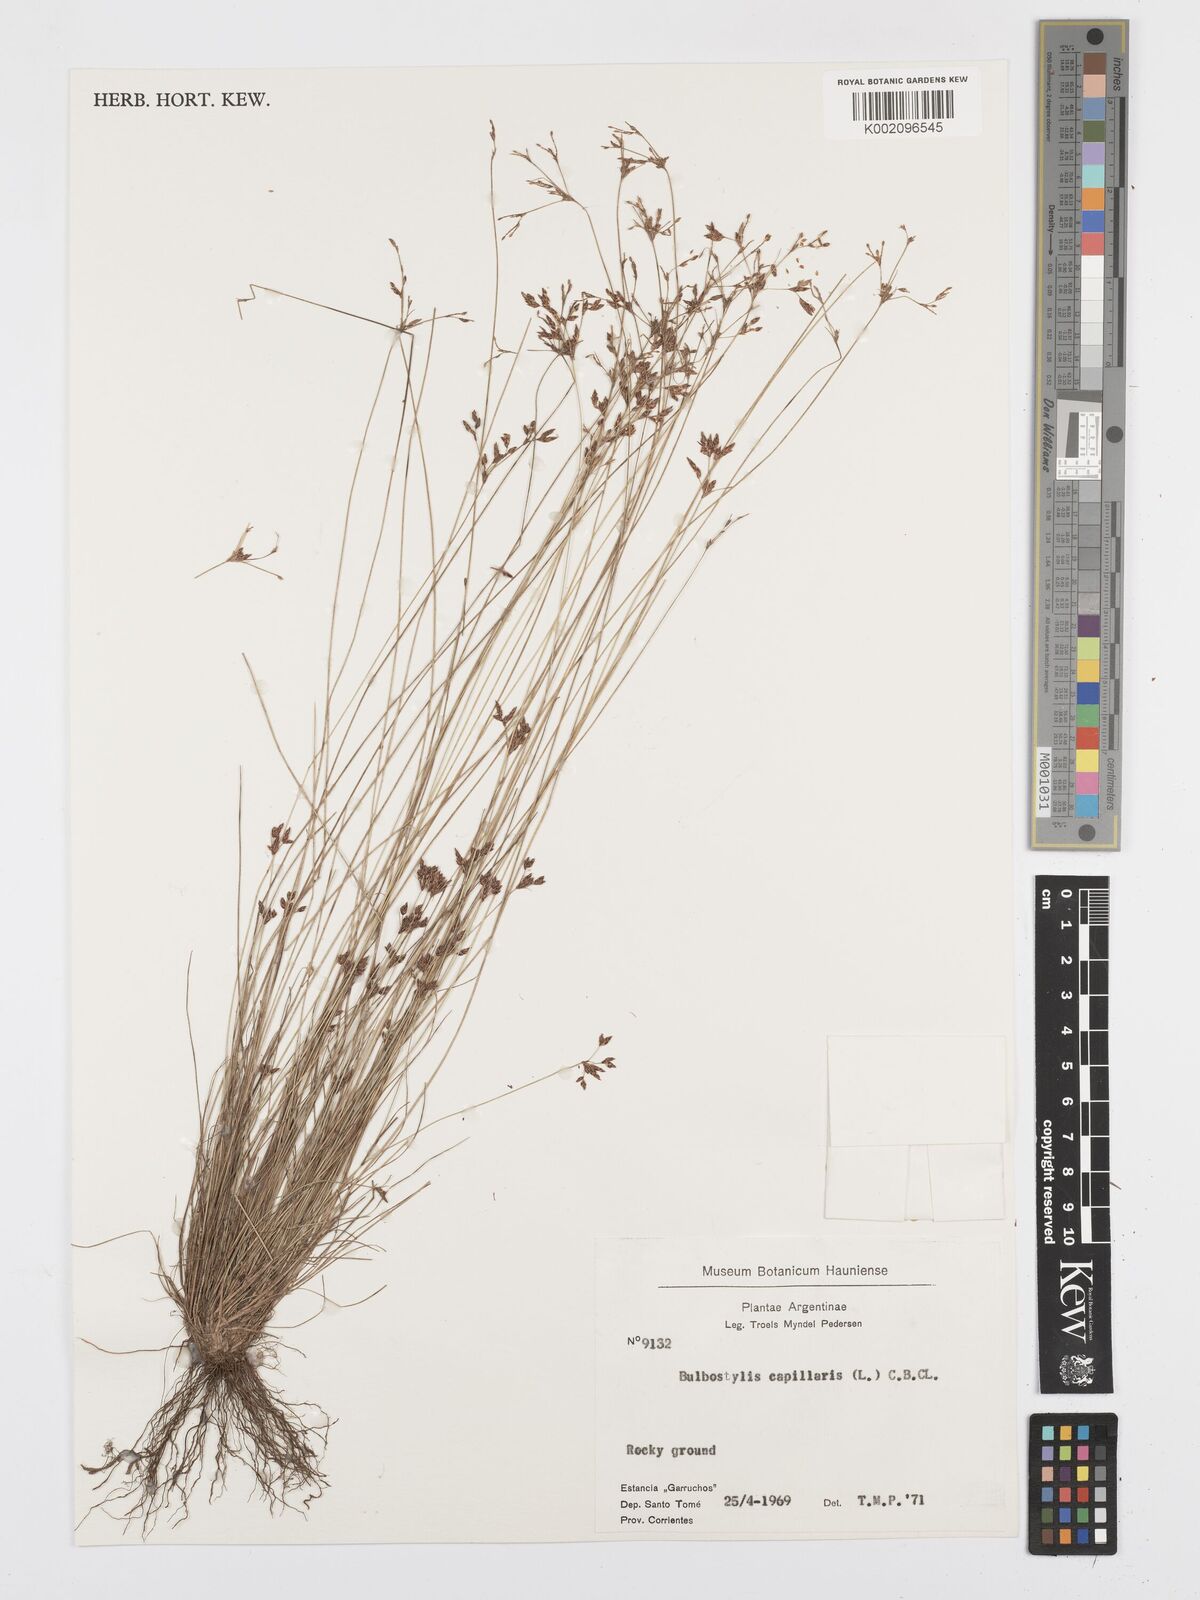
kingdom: Plantae
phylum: Tracheophyta
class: Liliopsida
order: Poales
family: Cyperaceae
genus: Bulbostylis
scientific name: Bulbostylis communis
